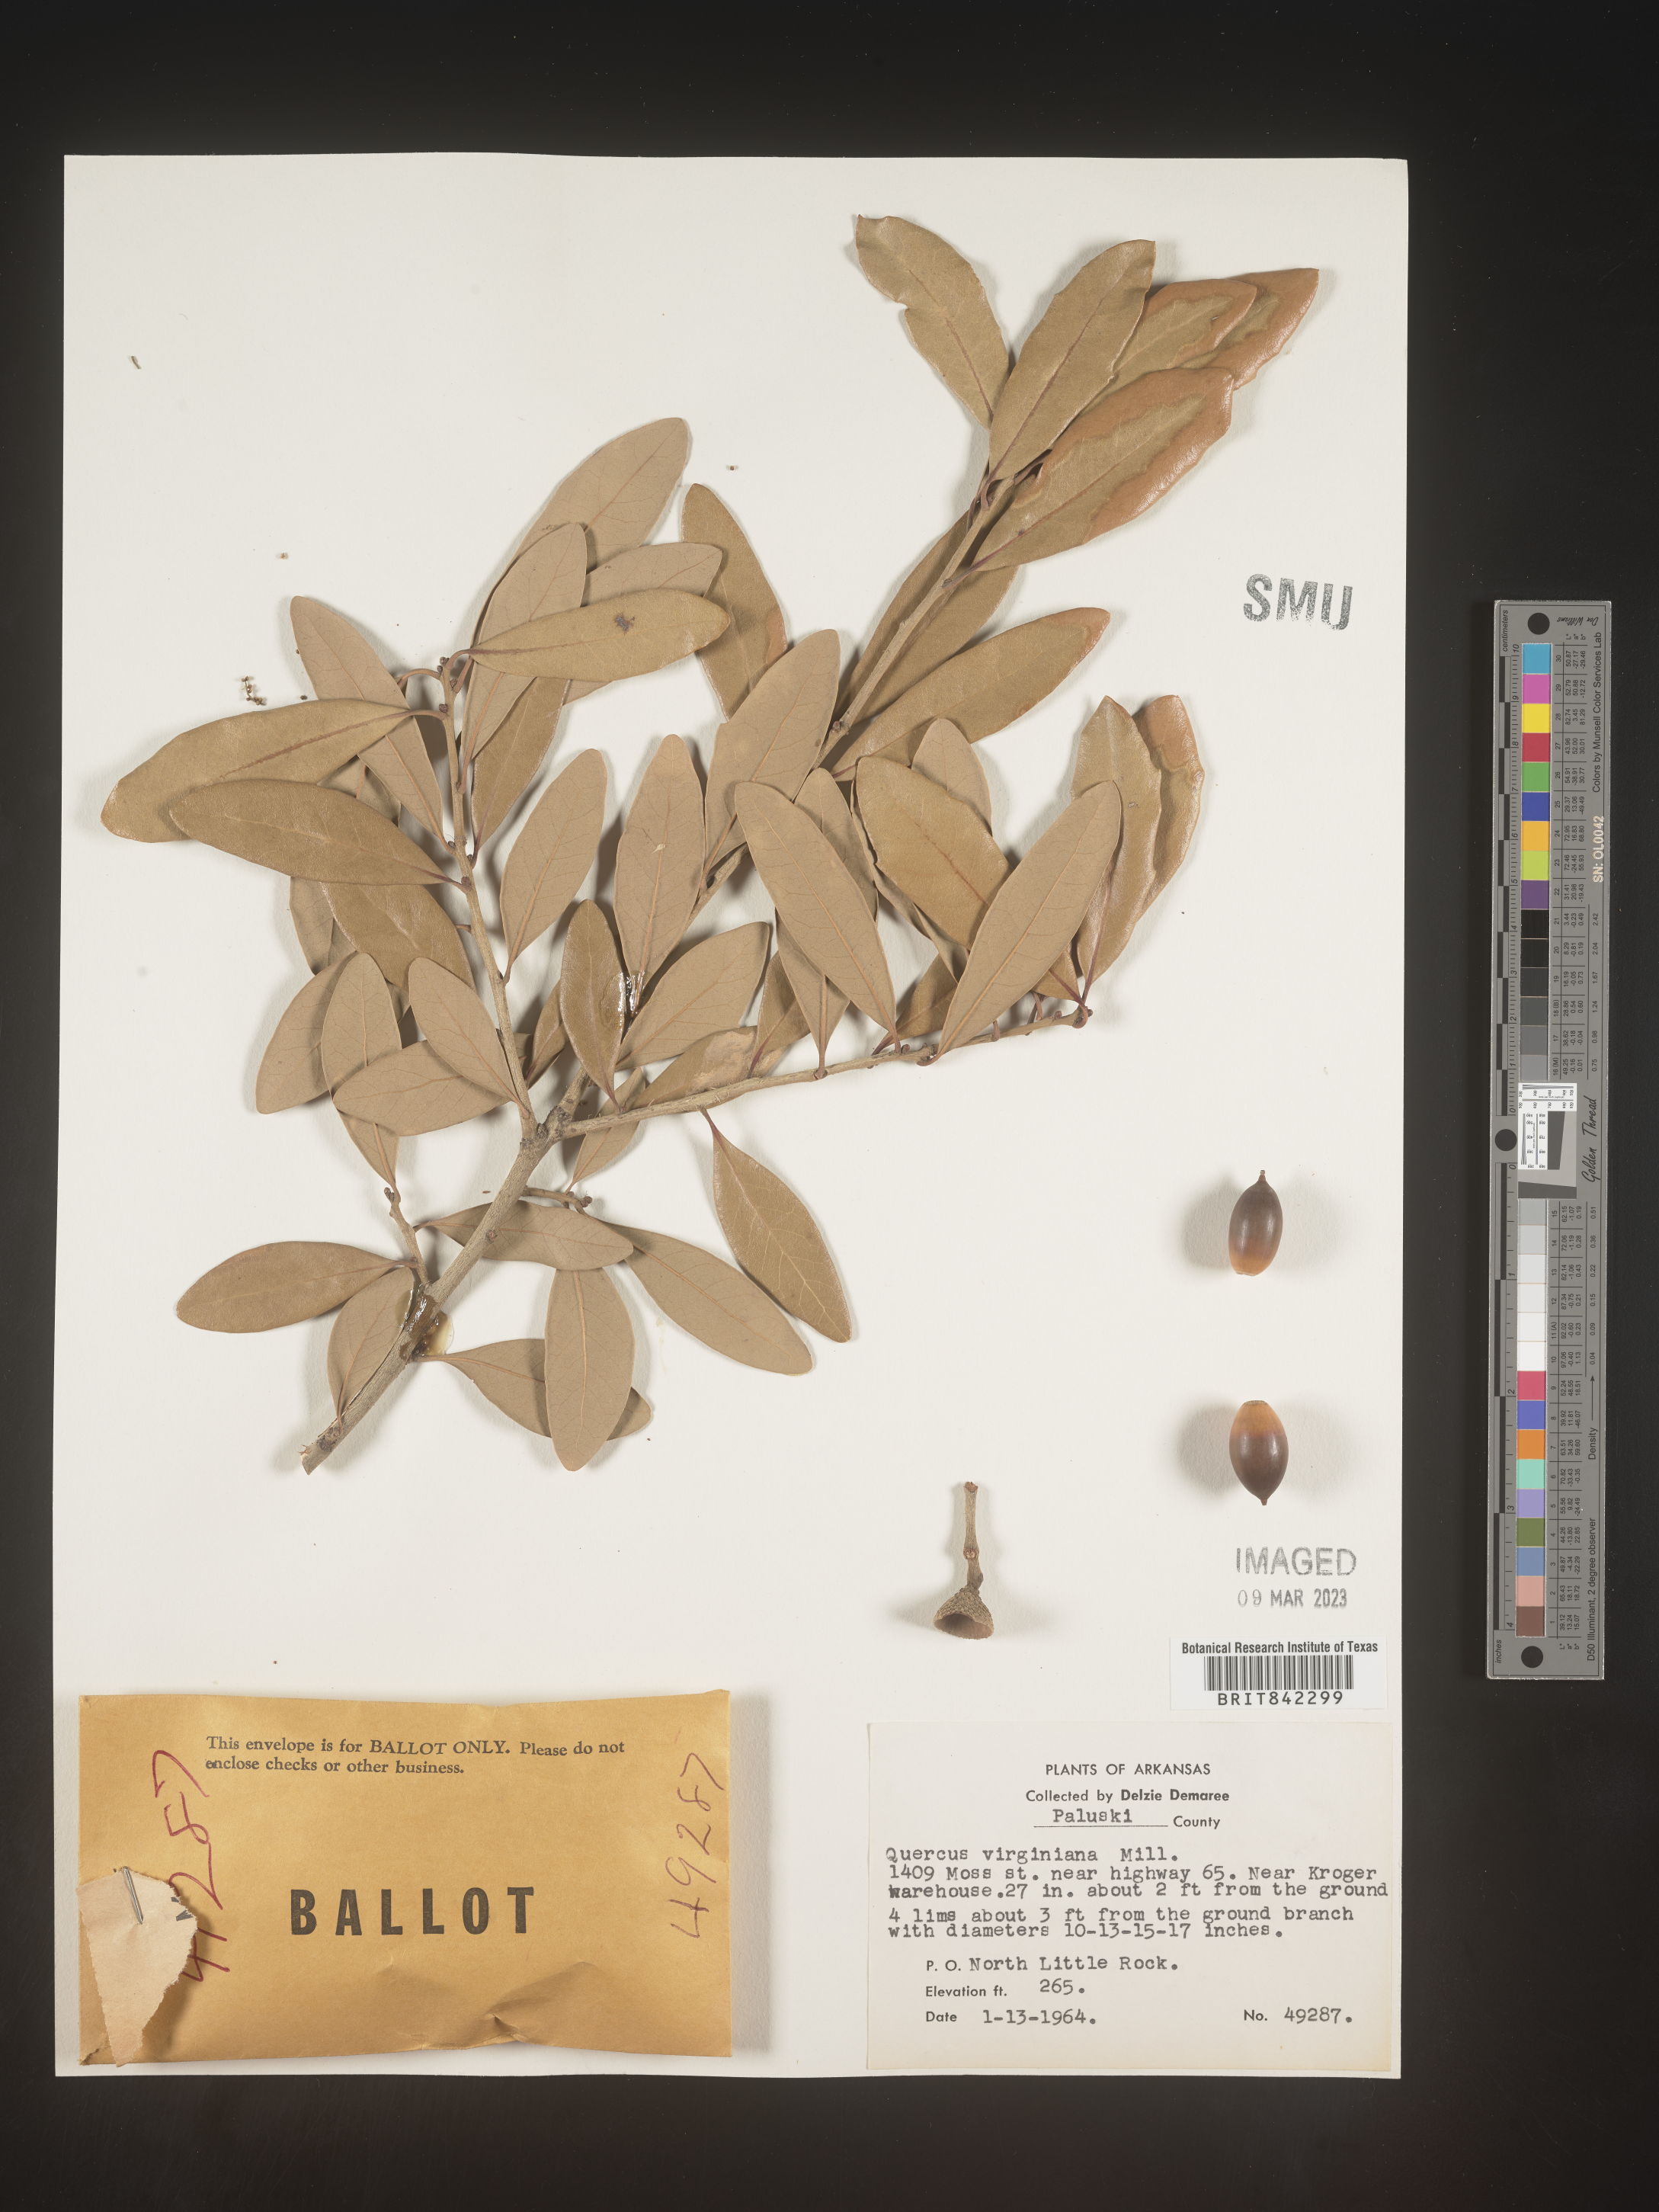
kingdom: Plantae
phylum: Tracheophyta
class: Magnoliopsida
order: Fagales
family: Fagaceae
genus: Quercus
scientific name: Quercus virginiana
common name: Southern live oak
